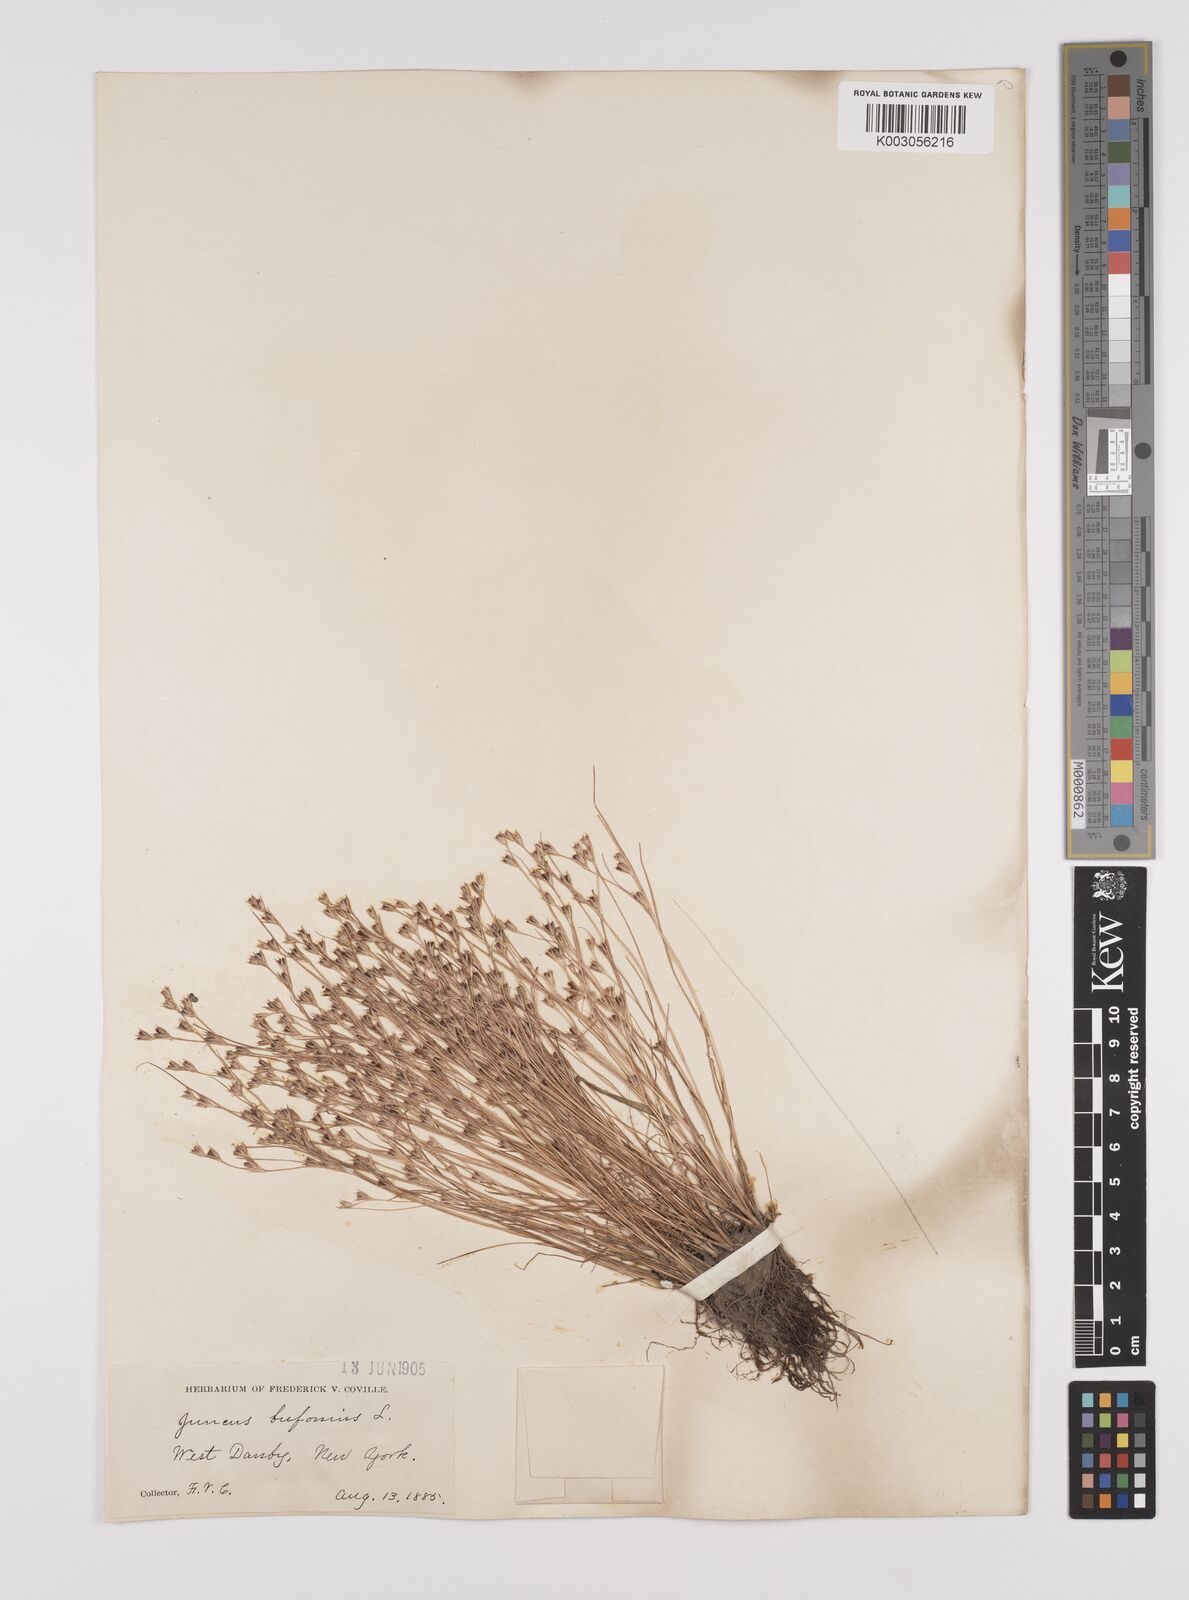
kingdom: Plantae
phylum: Tracheophyta
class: Liliopsida
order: Poales
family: Juncaceae
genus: Juncus
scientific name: Juncus bufonius
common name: Toad rush
